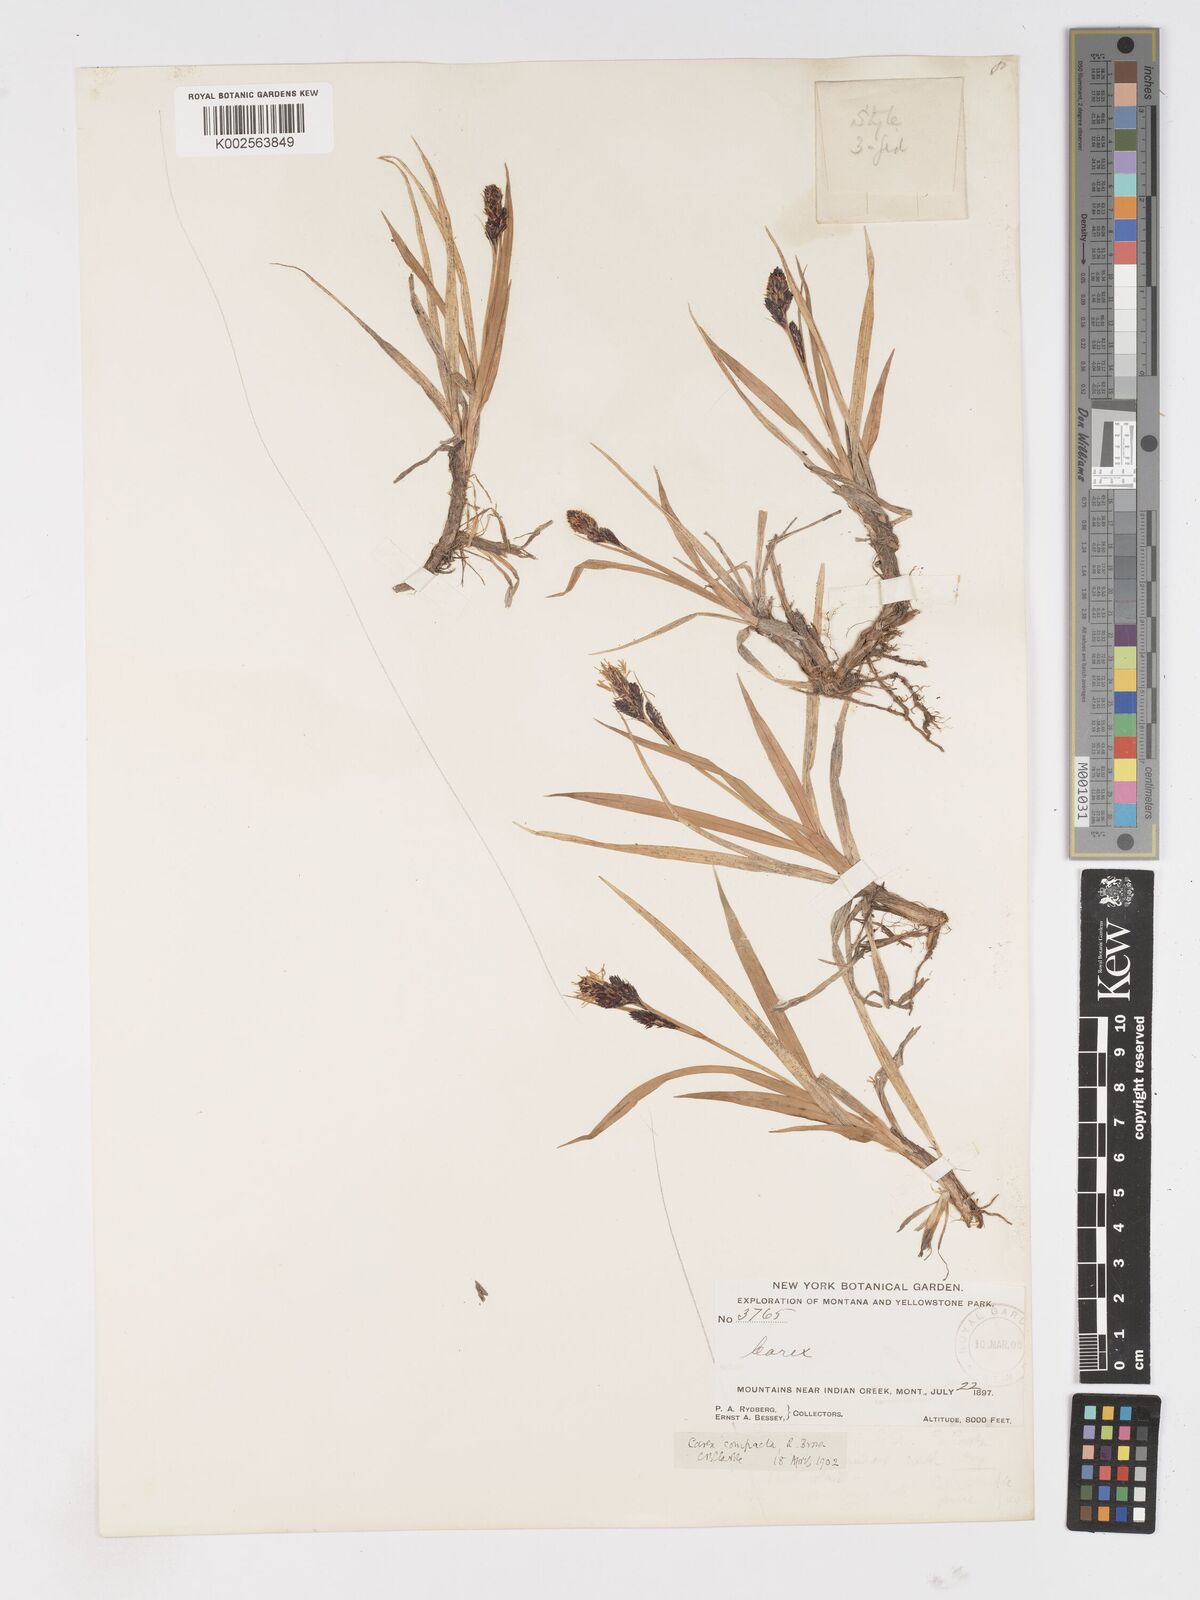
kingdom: Plantae
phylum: Tracheophyta
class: Liliopsida
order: Poales
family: Cyperaceae
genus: Carex
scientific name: Carex membranacea
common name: Fragile sedge
